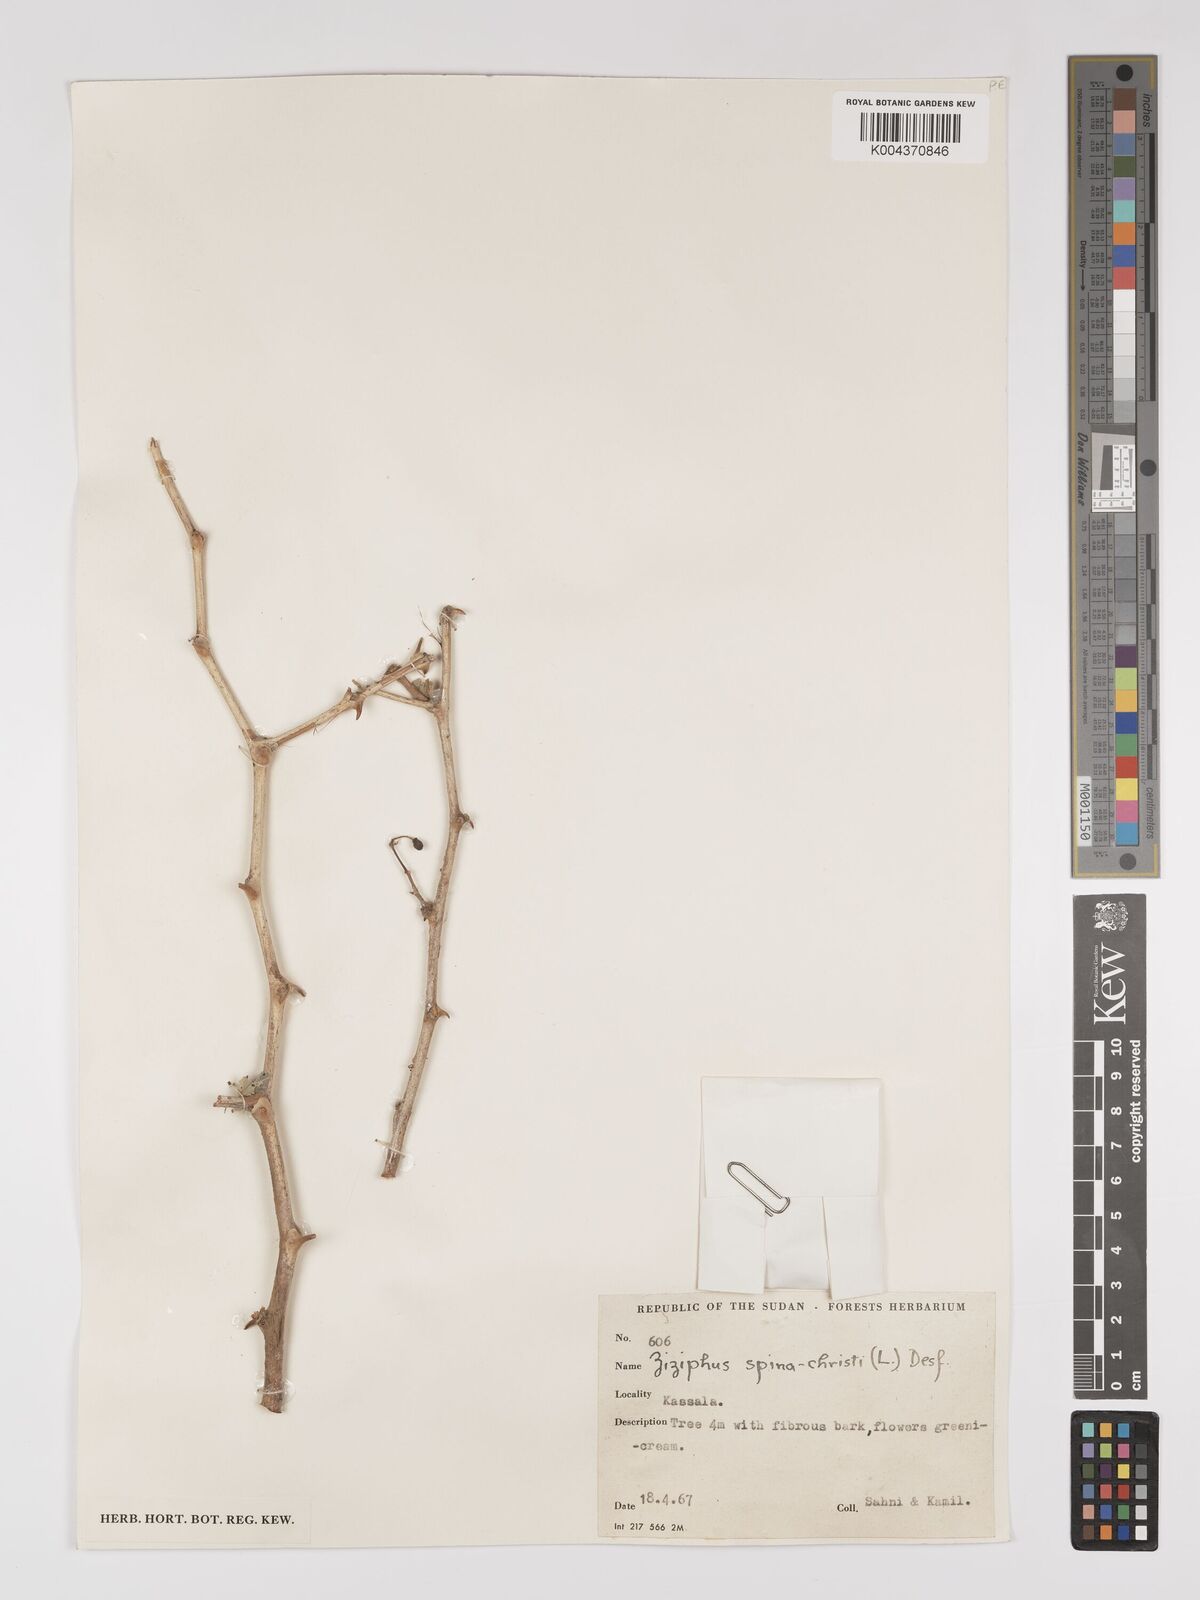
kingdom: Plantae
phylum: Tracheophyta
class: Magnoliopsida
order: Rosales
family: Rhamnaceae
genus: Ziziphus
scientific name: Ziziphus spina-christi
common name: Syrian christ-thorn
